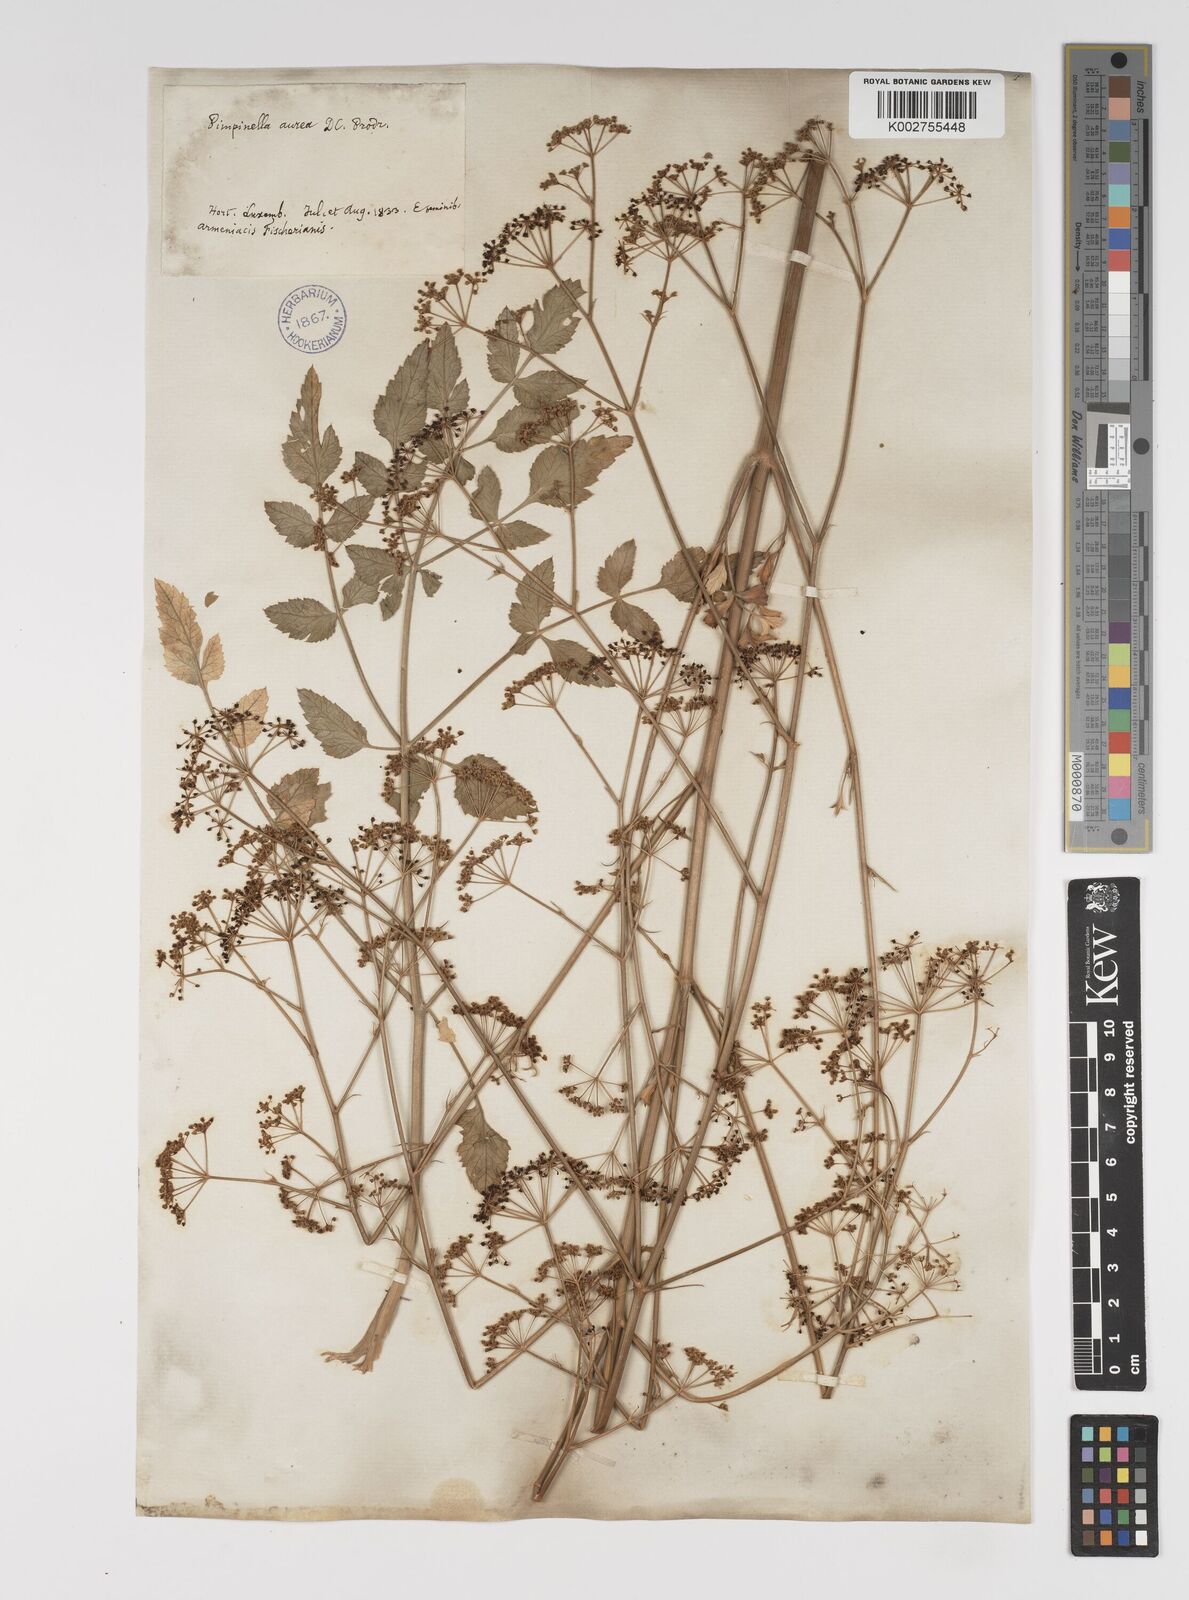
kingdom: Plantae
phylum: Tracheophyta
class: Magnoliopsida
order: Apiales
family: Apiaceae
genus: Pimpinella
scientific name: Pimpinella aurea
